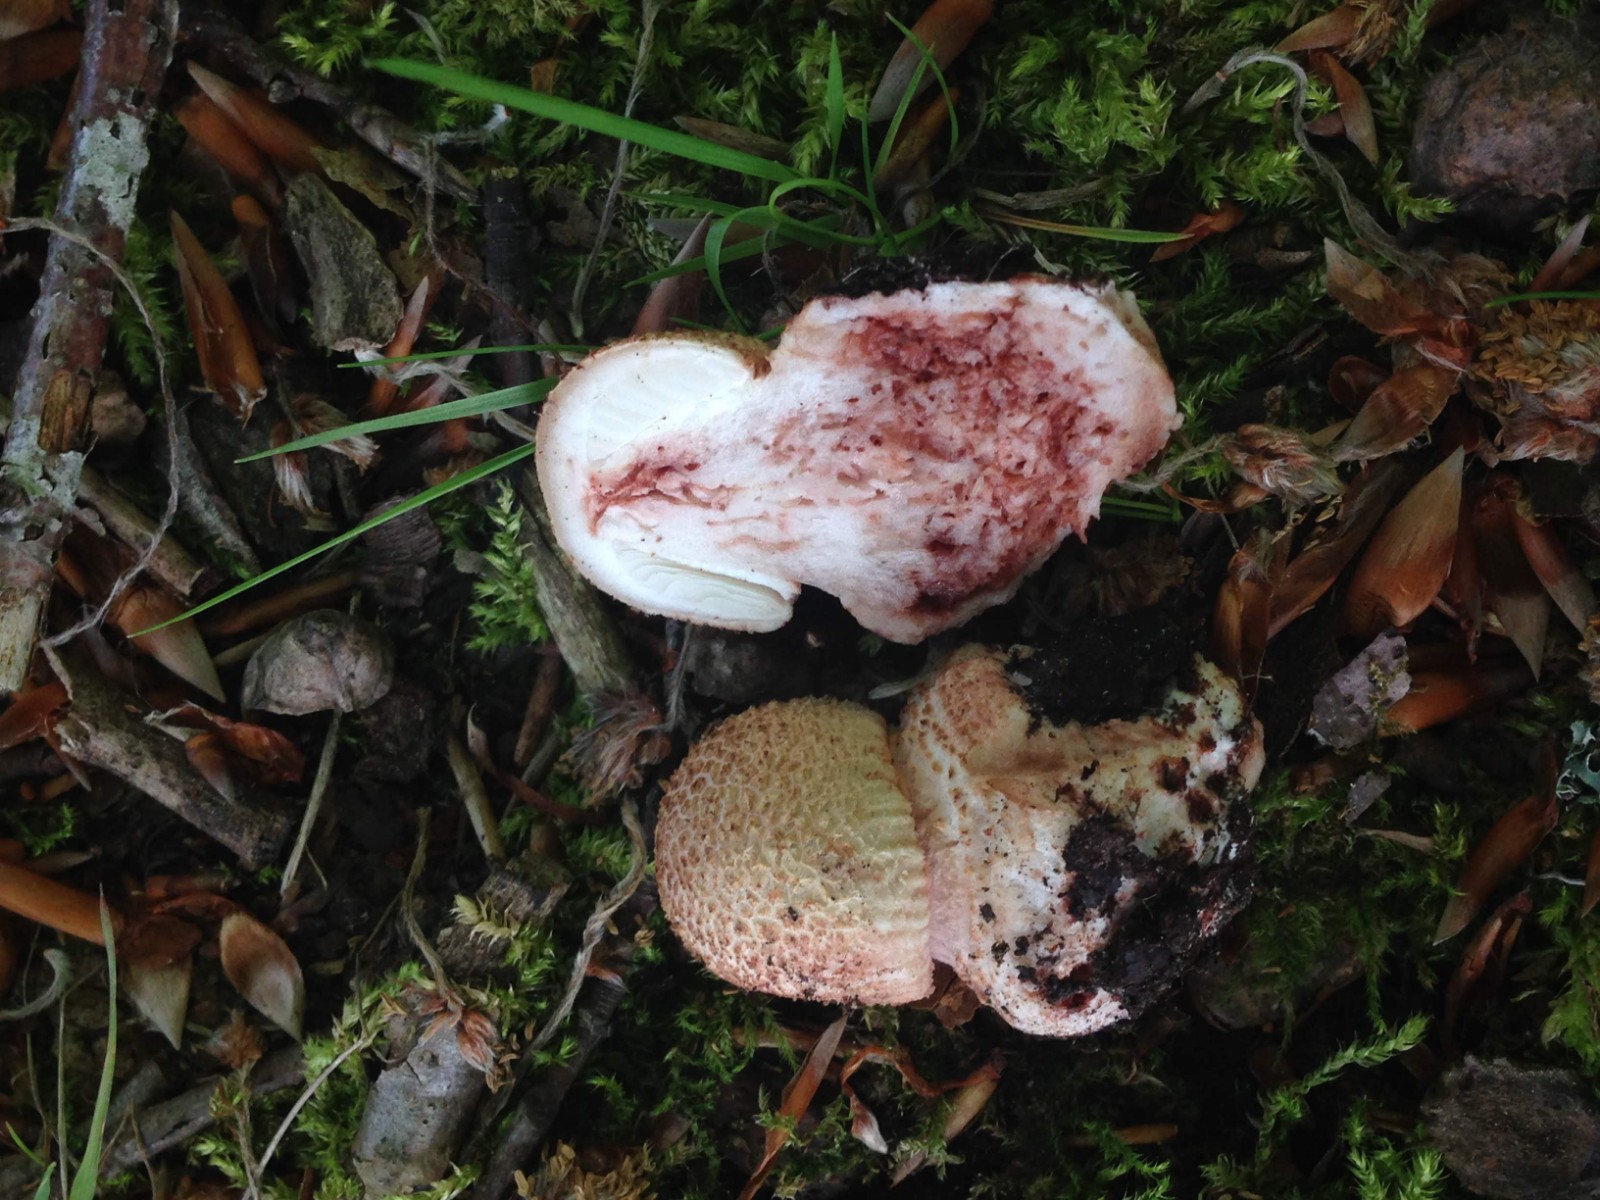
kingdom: Fungi
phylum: Basidiomycota
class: Agaricomycetes
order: Agaricales
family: Amanitaceae
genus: Amanita
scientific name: Amanita rubescens
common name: rødmende fluesvamp
